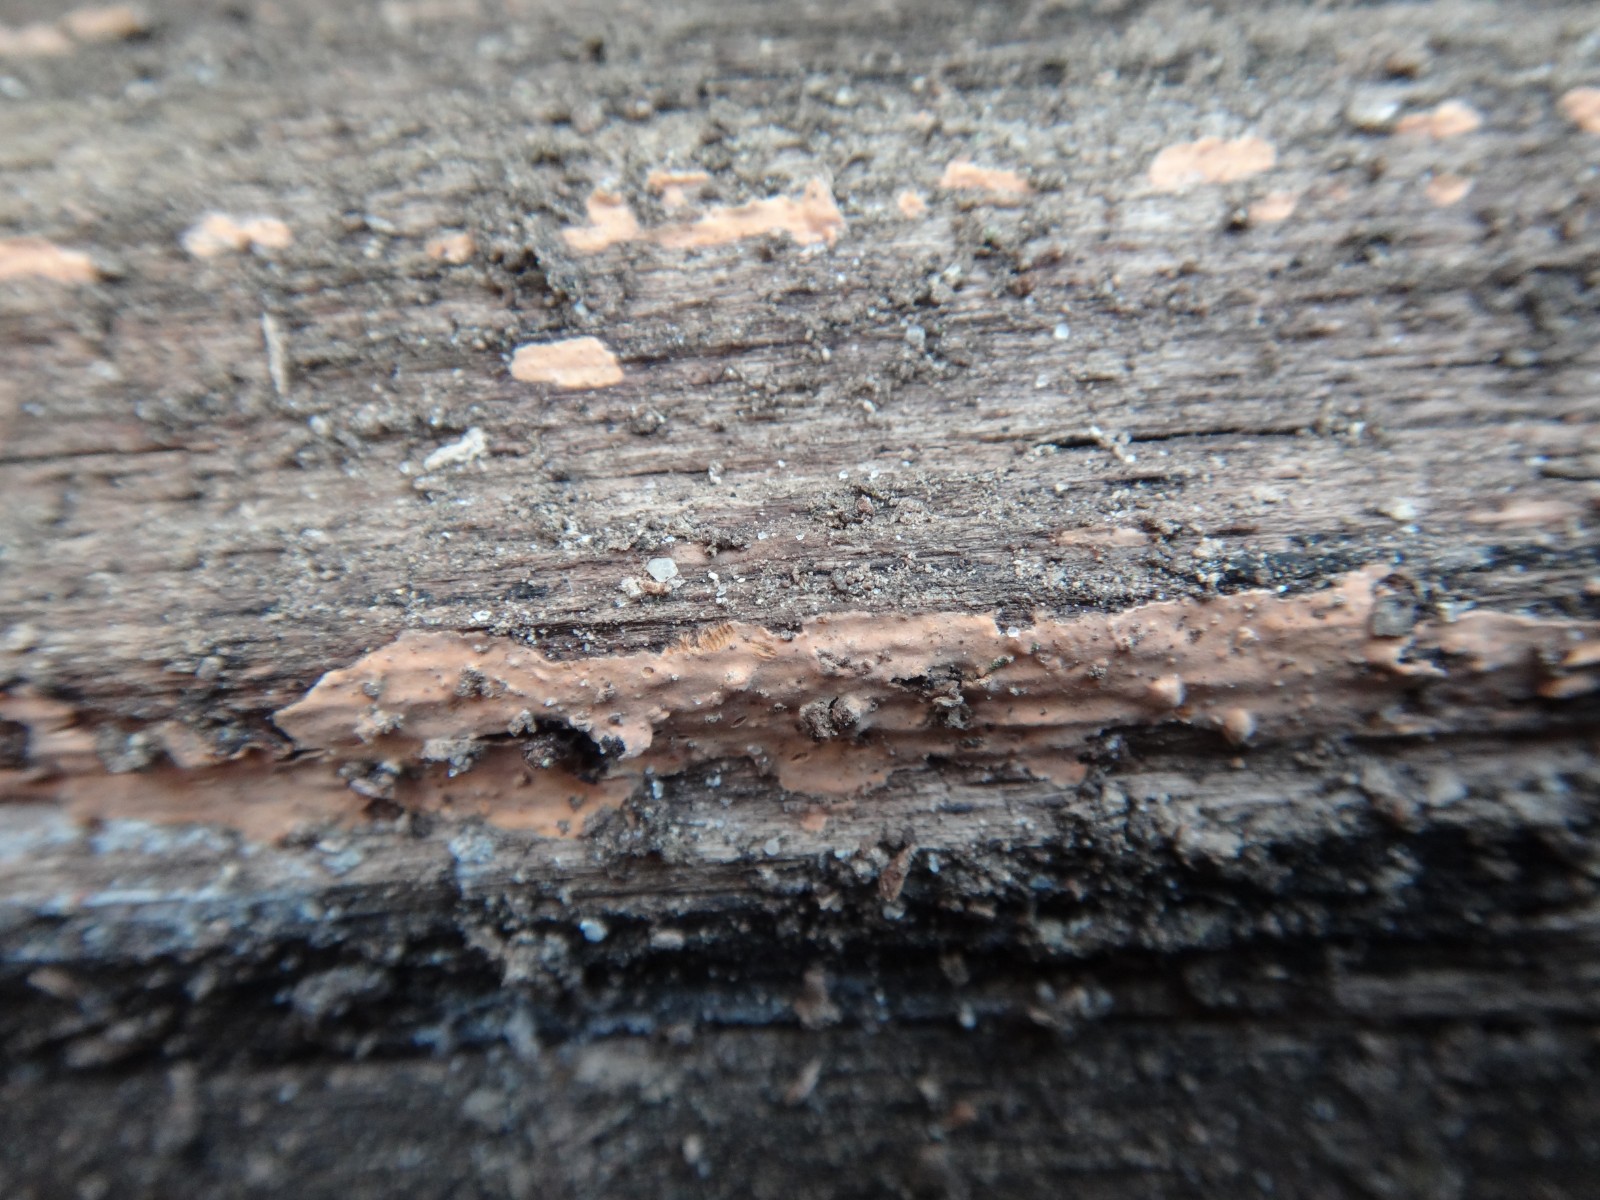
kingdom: Fungi
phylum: Basidiomycota
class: Agaricomycetes
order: Russulales
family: Peniophoraceae
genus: Peniophora
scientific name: Peniophora incarnata
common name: laksefarvet voksskind
